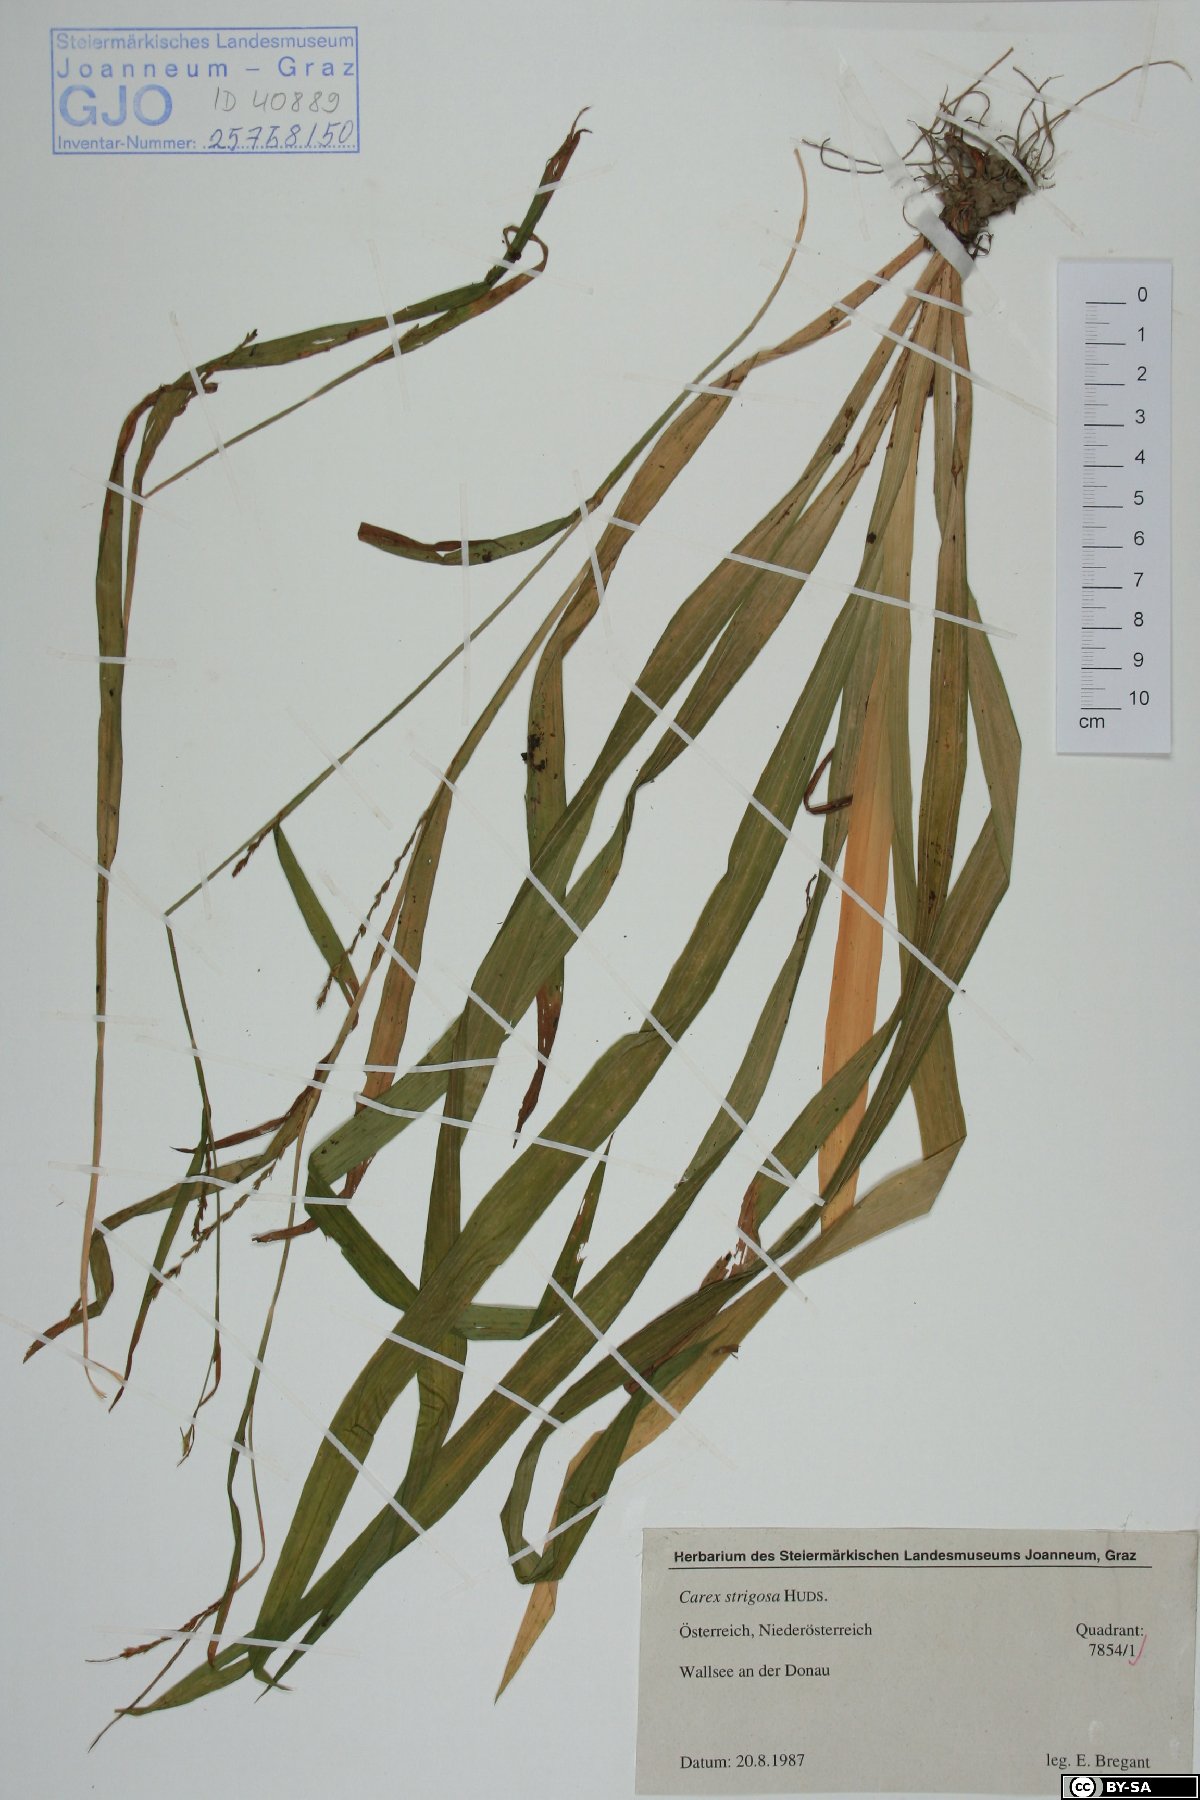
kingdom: Plantae
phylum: Tracheophyta
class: Liliopsida
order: Poales
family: Cyperaceae
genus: Carex
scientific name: Carex strigosa
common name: Thin-spiked wood-sedge
